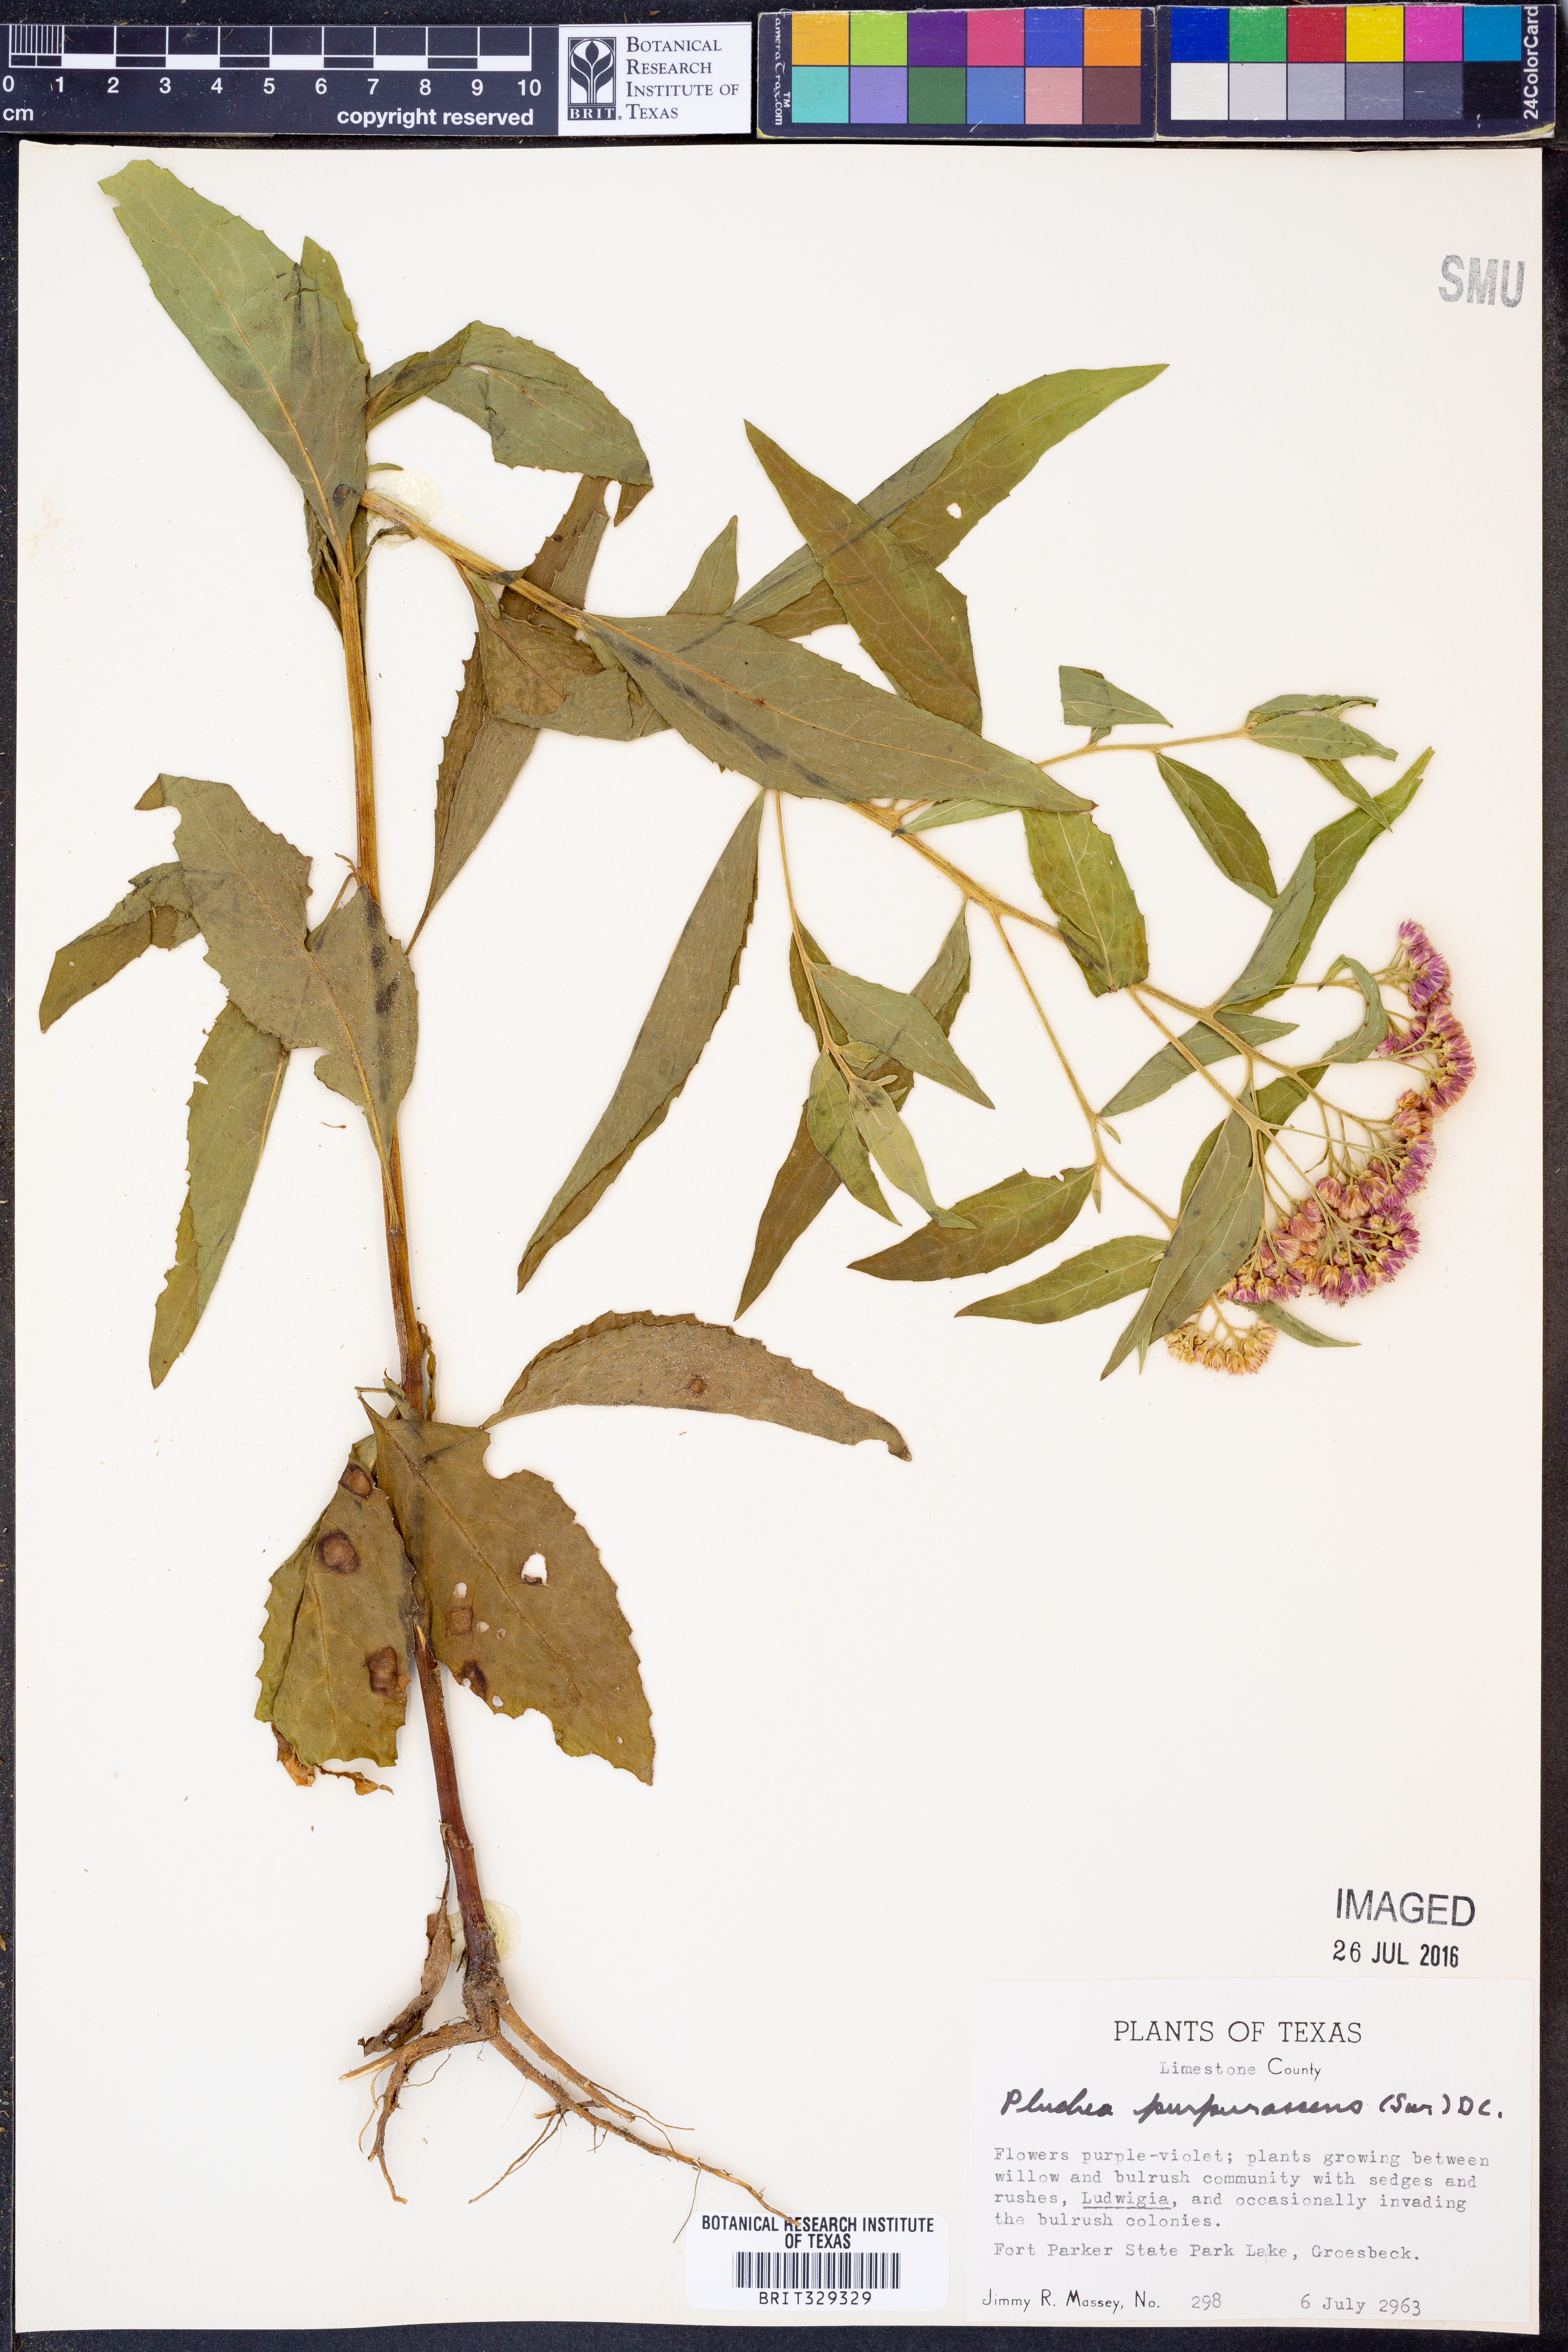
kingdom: Plantae
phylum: Tracheophyta
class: Magnoliopsida
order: Asterales
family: Asteraceae
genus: Pluchea
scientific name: Pluchea odorata
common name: Saltmarsh fleabane
